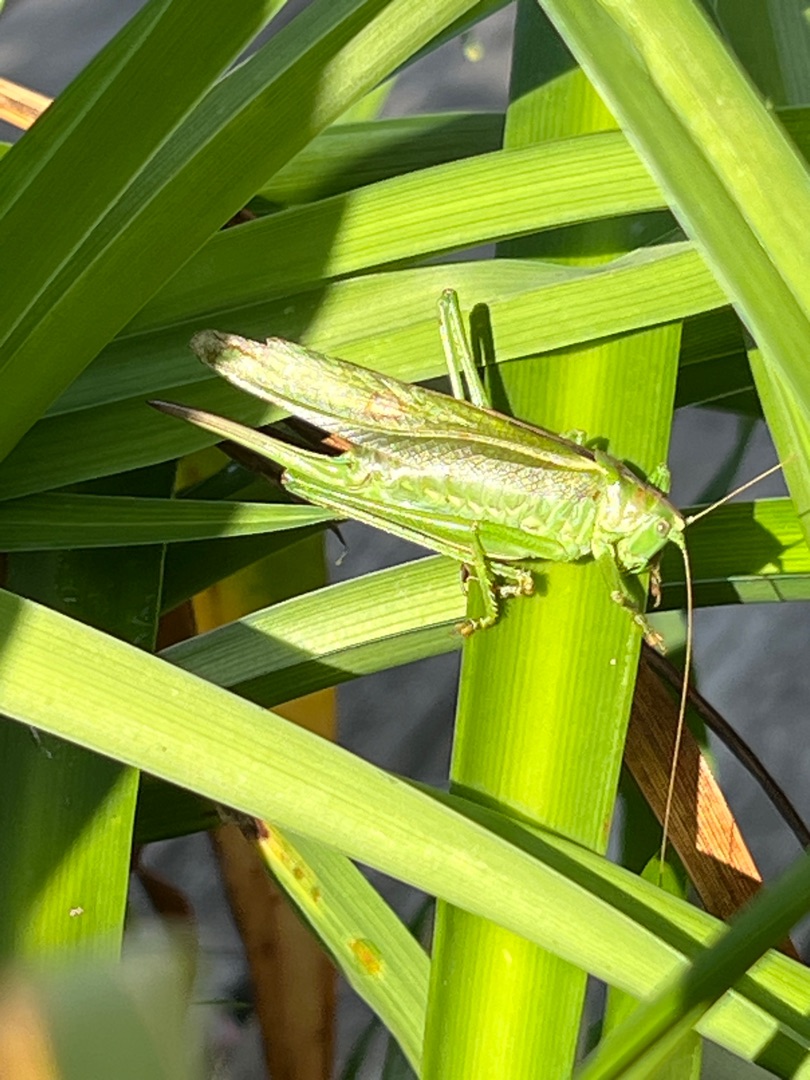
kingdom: Animalia
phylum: Arthropoda
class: Insecta
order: Orthoptera
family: Tettigoniidae
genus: Tettigonia
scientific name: Tettigonia viridissima
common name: Stor grøn løvgræshoppe
